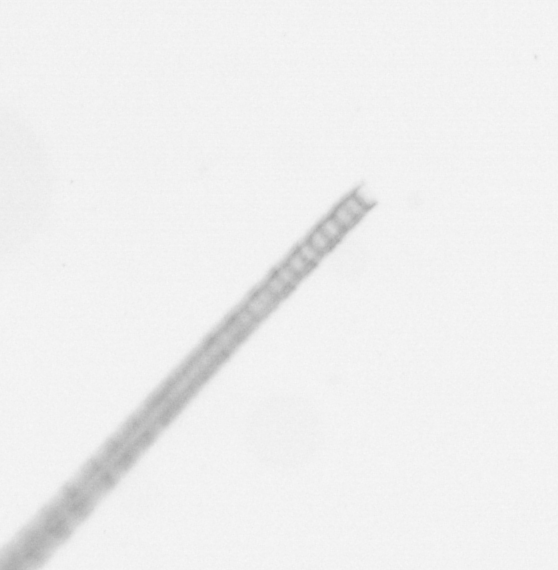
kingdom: Chromista
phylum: Ochrophyta
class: Bacillariophyceae
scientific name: Bacillariophyceae
